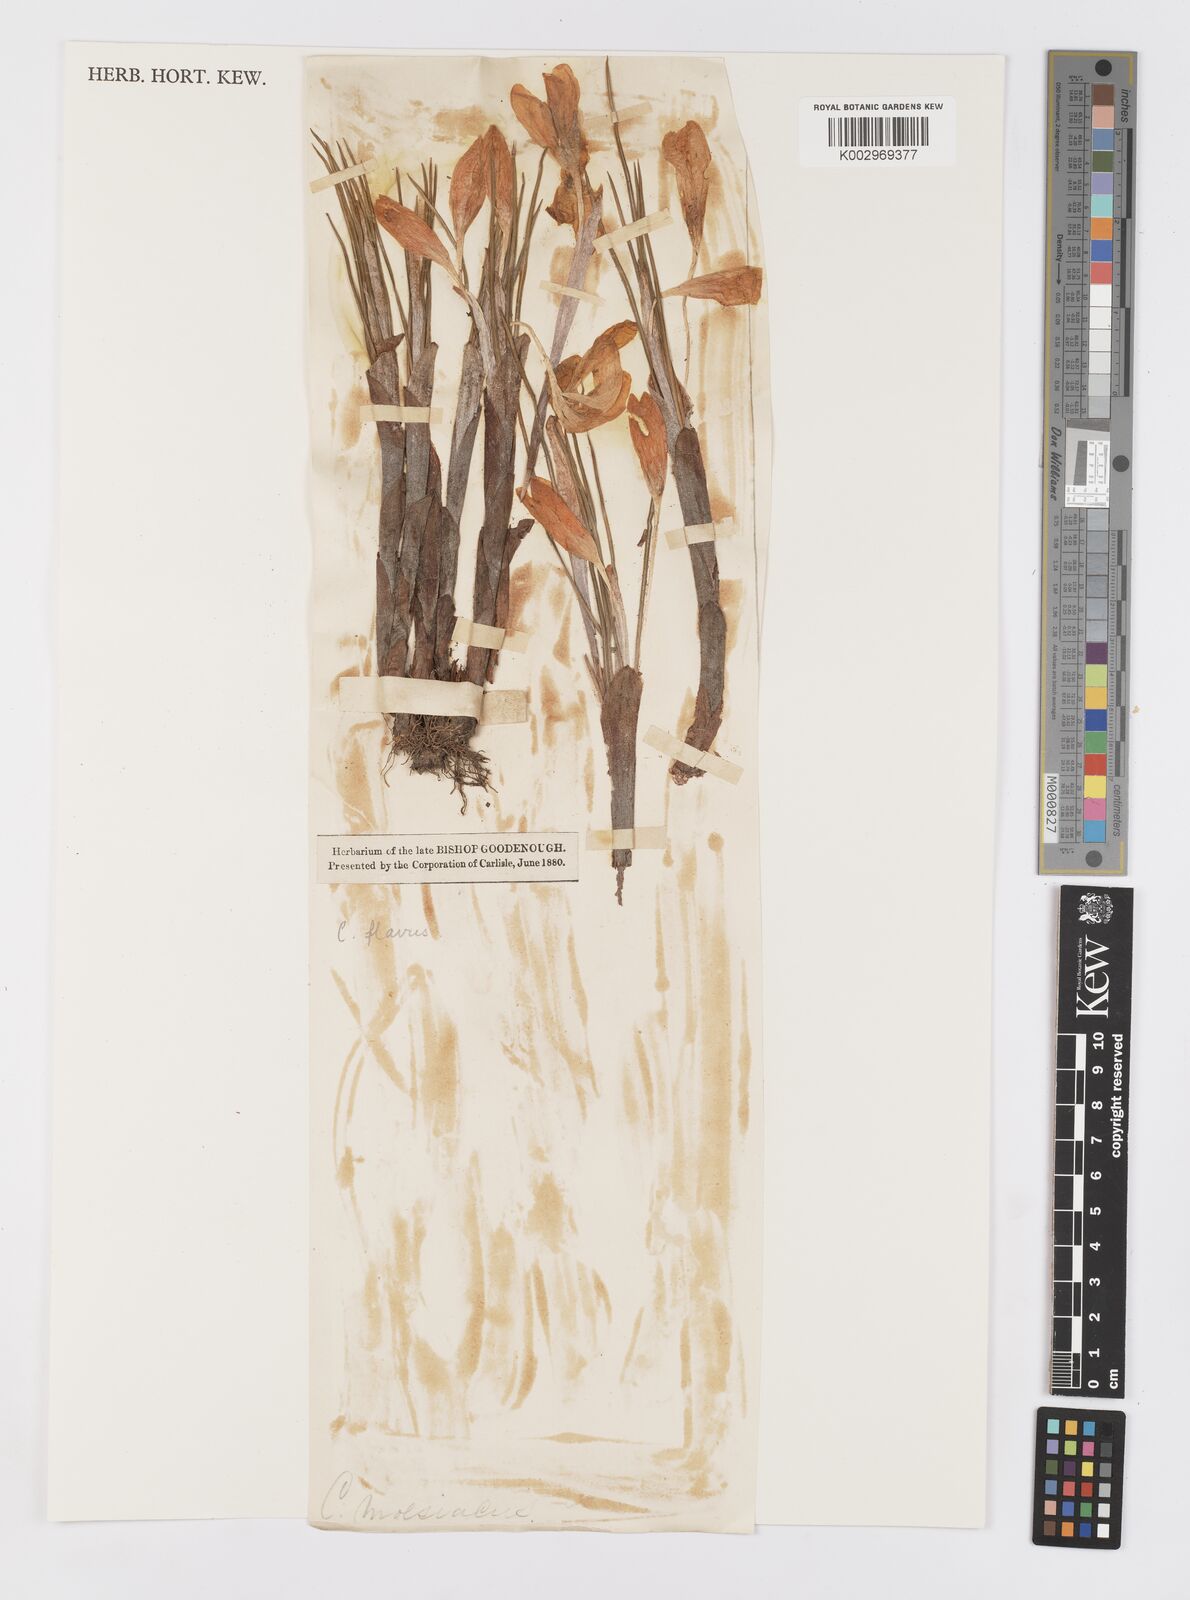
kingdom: Plantae
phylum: Tracheophyta
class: Liliopsida
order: Asparagales
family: Iridaceae
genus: Crocus
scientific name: Crocus flavus
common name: Yellow crocus
